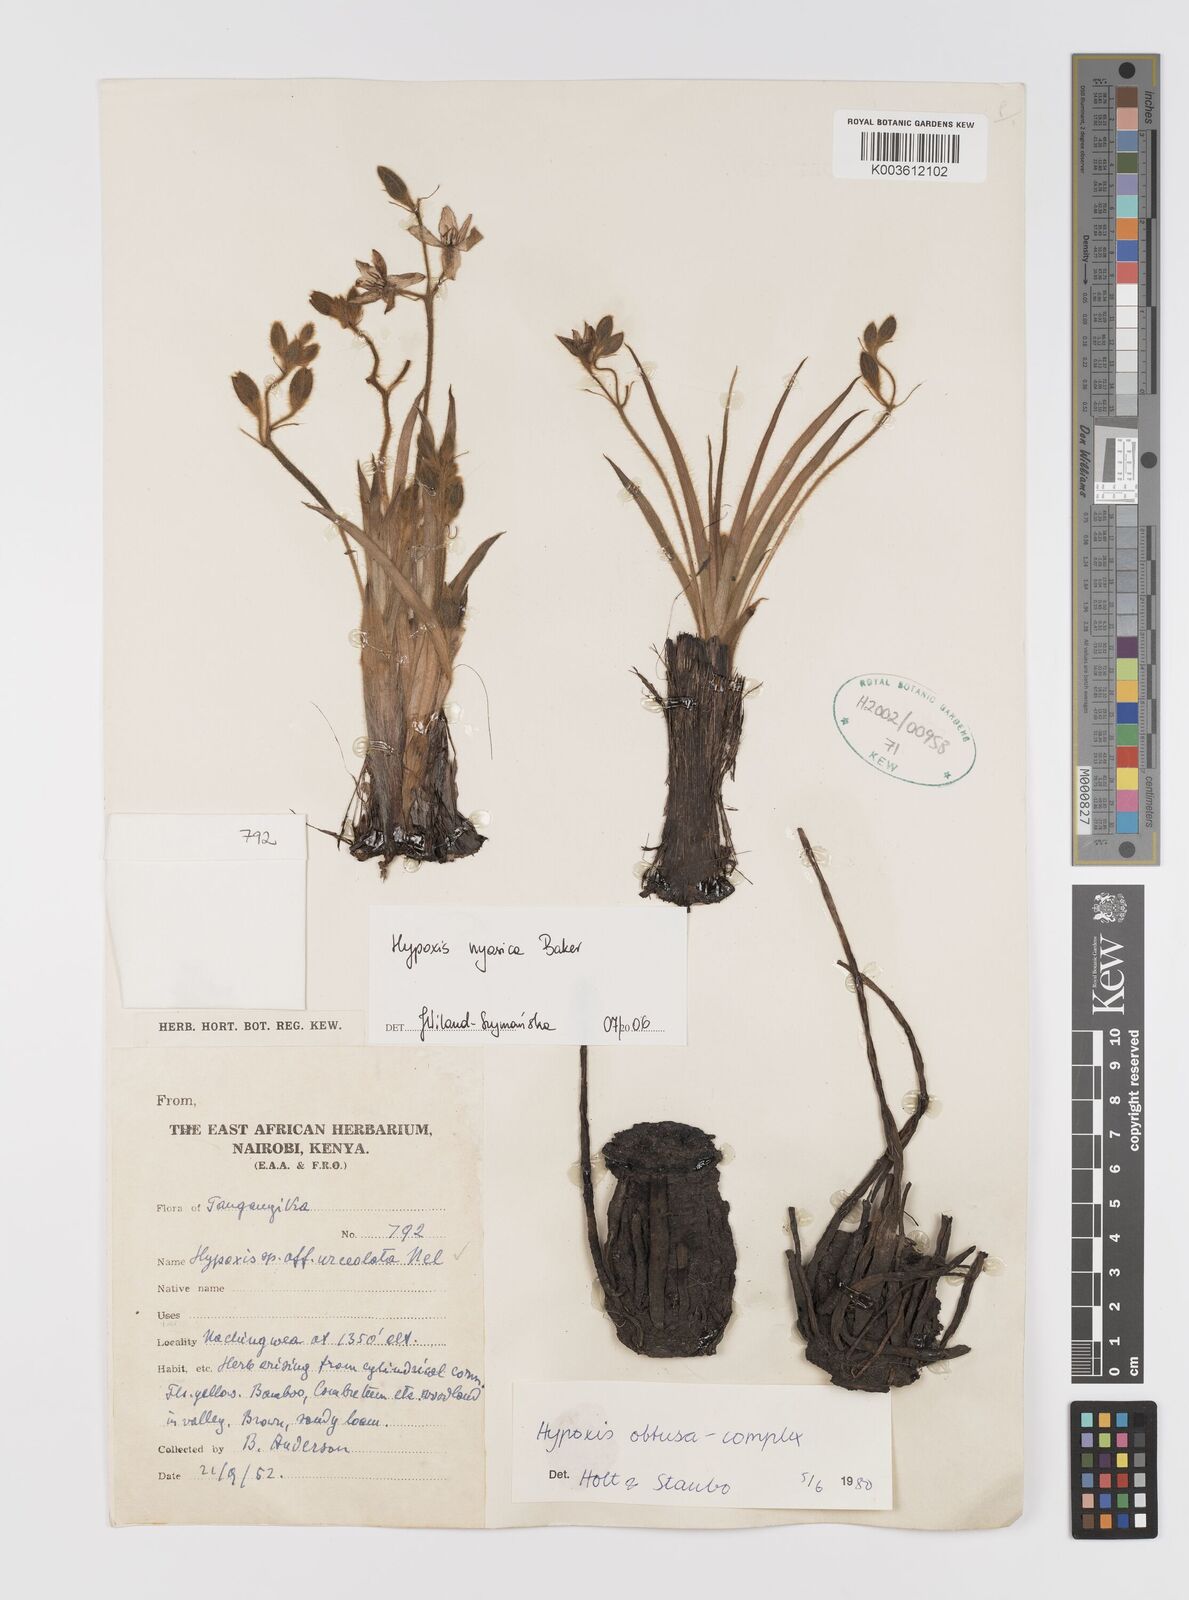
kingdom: Plantae
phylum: Tracheophyta
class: Liliopsida
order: Asparagales
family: Hypoxidaceae
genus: Hypoxis
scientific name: Hypoxis nyasica
